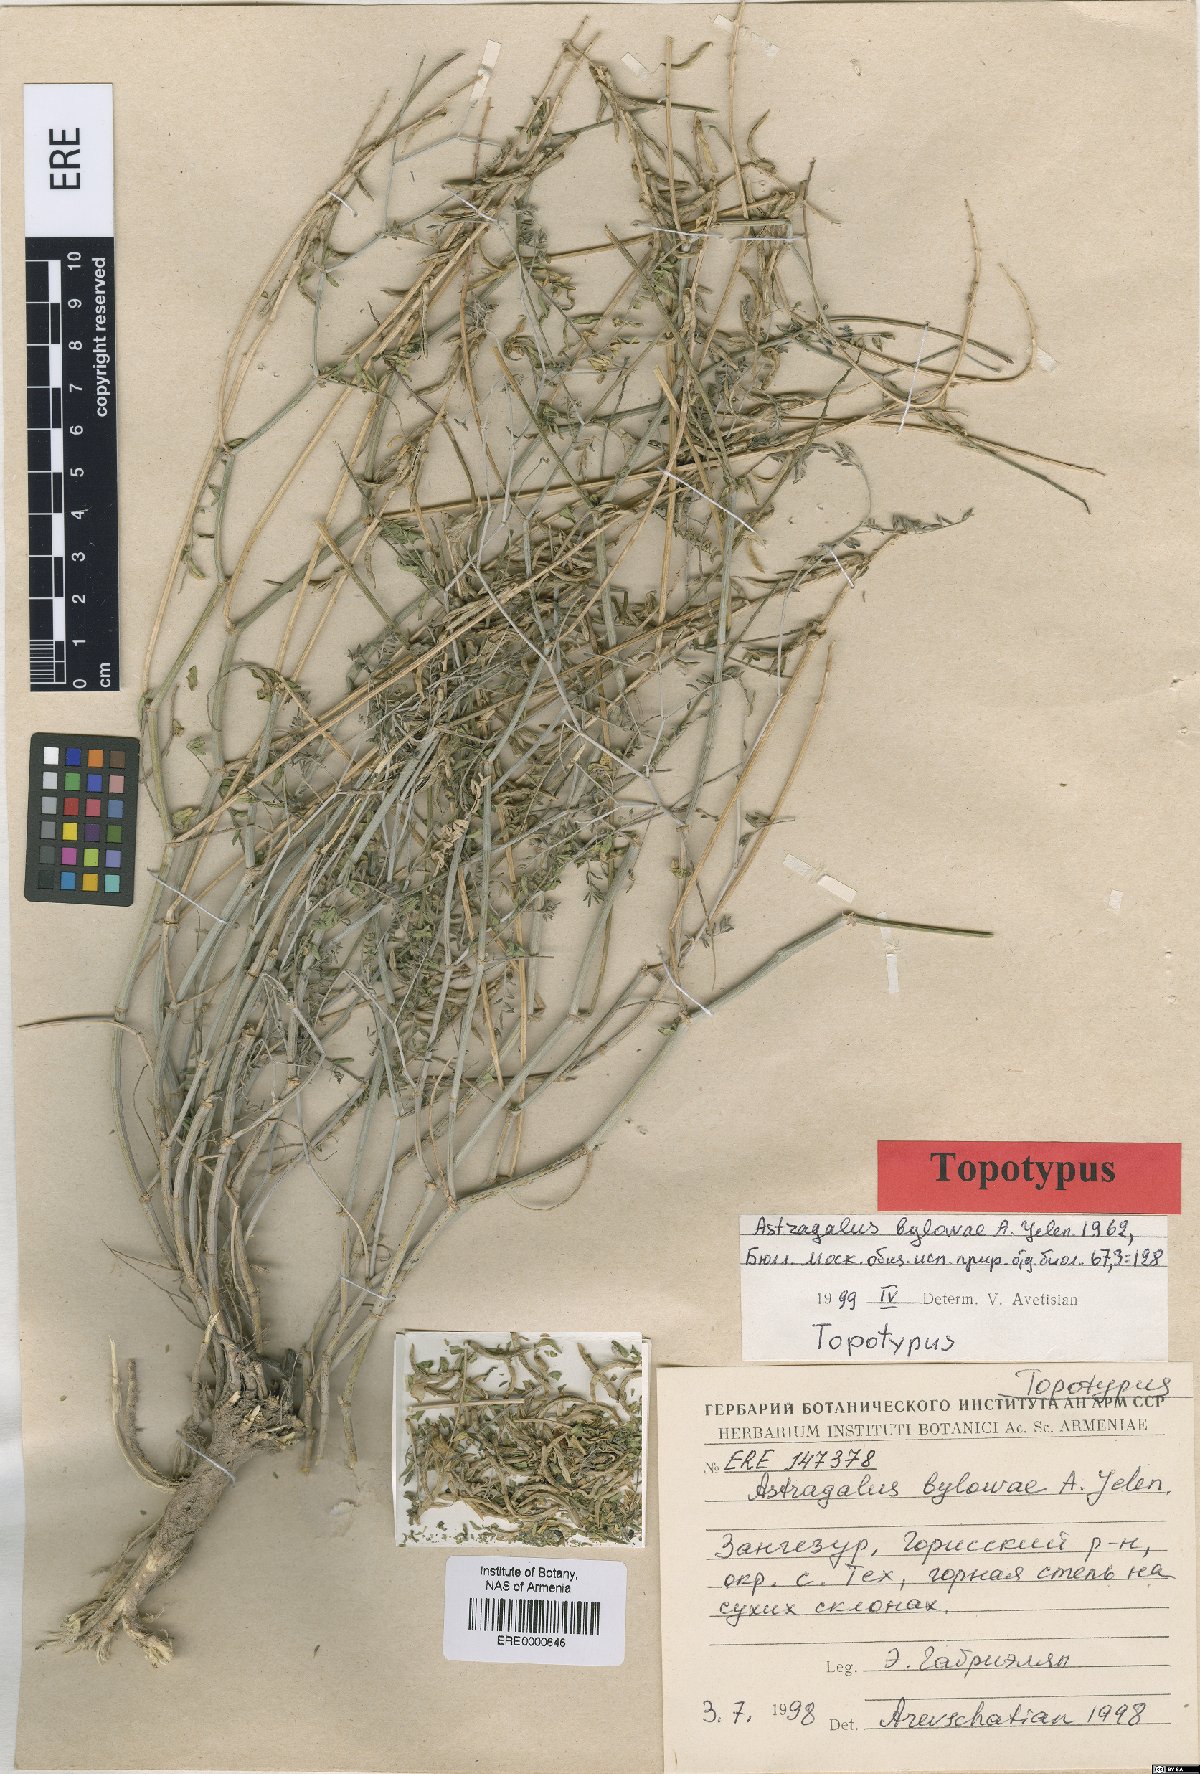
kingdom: Plantae
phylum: Tracheophyta
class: Magnoliopsida
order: Fabales
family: Fabaceae
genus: Astragalus
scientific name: Astragalus ornithopodioides
